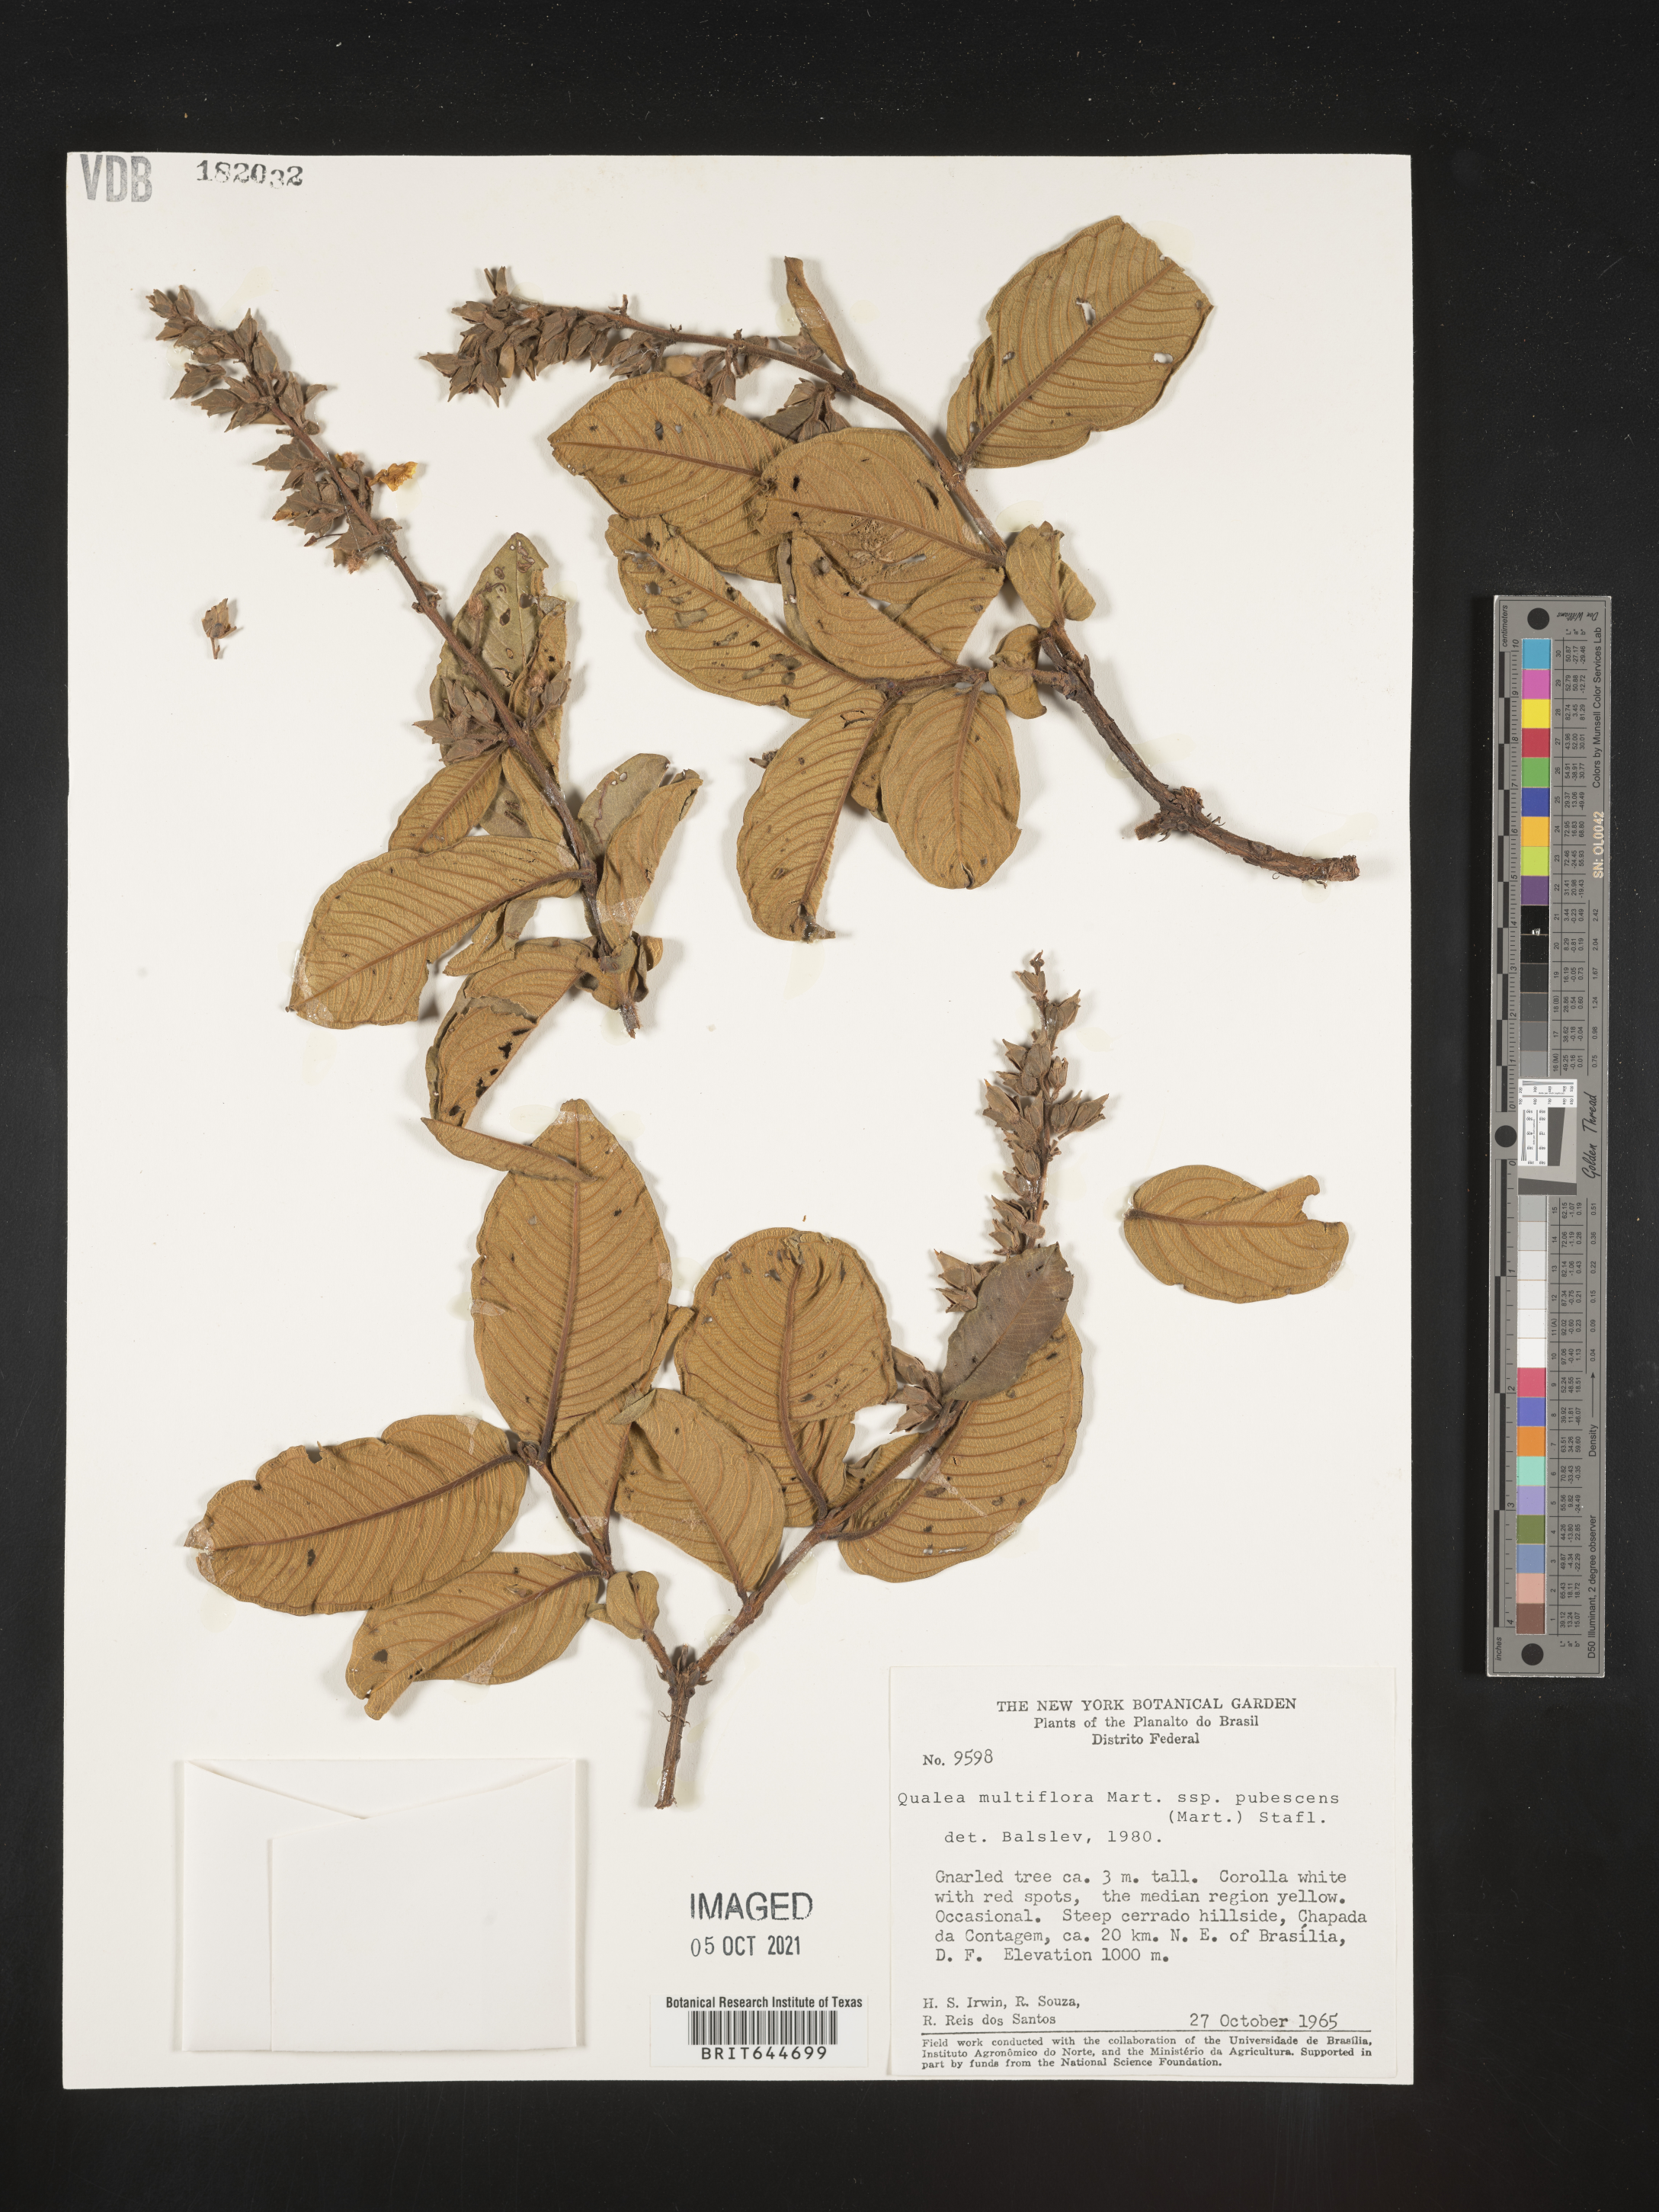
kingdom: Plantae
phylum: Tracheophyta
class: Magnoliopsida
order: Myrtales
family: Vochysiaceae
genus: Qualea
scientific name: Qualea
